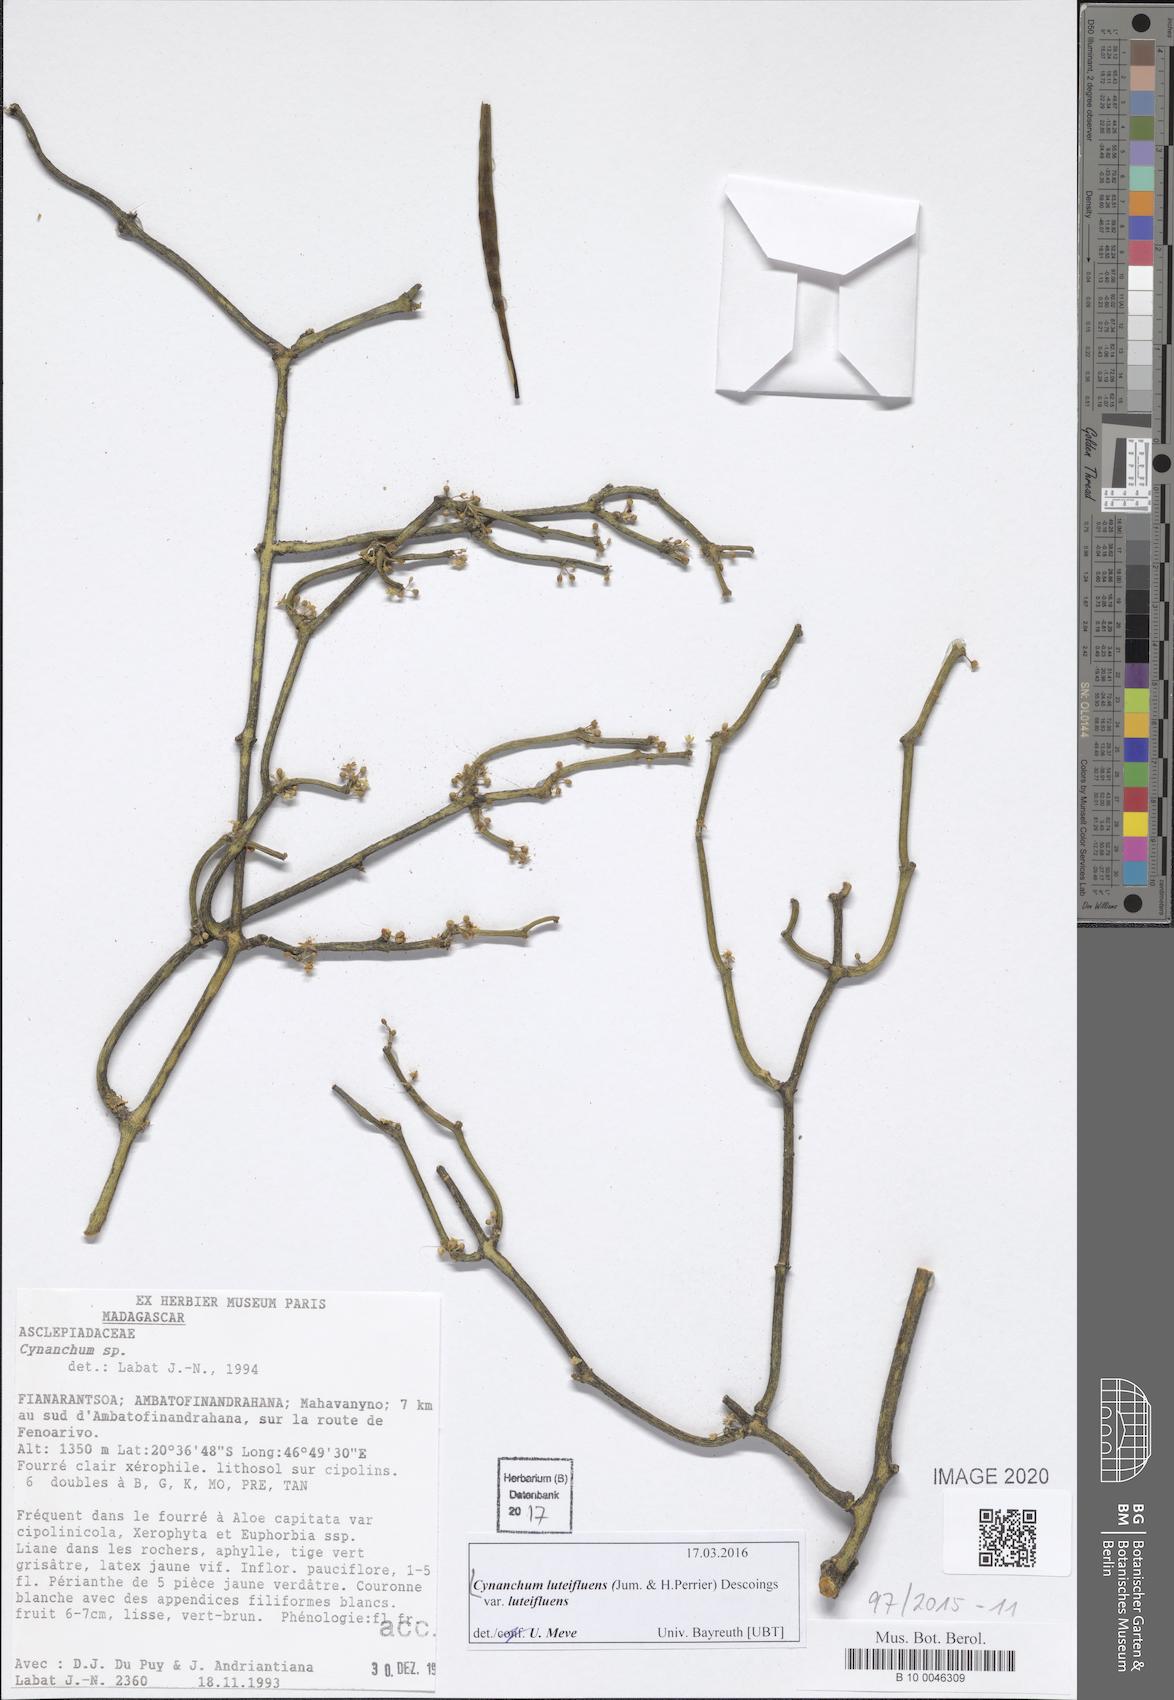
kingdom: Plantae
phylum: Tracheophyta
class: Magnoliopsida
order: Gentianales
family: Apocynaceae
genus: Cynanchum
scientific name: Cynanchum luteifluens
